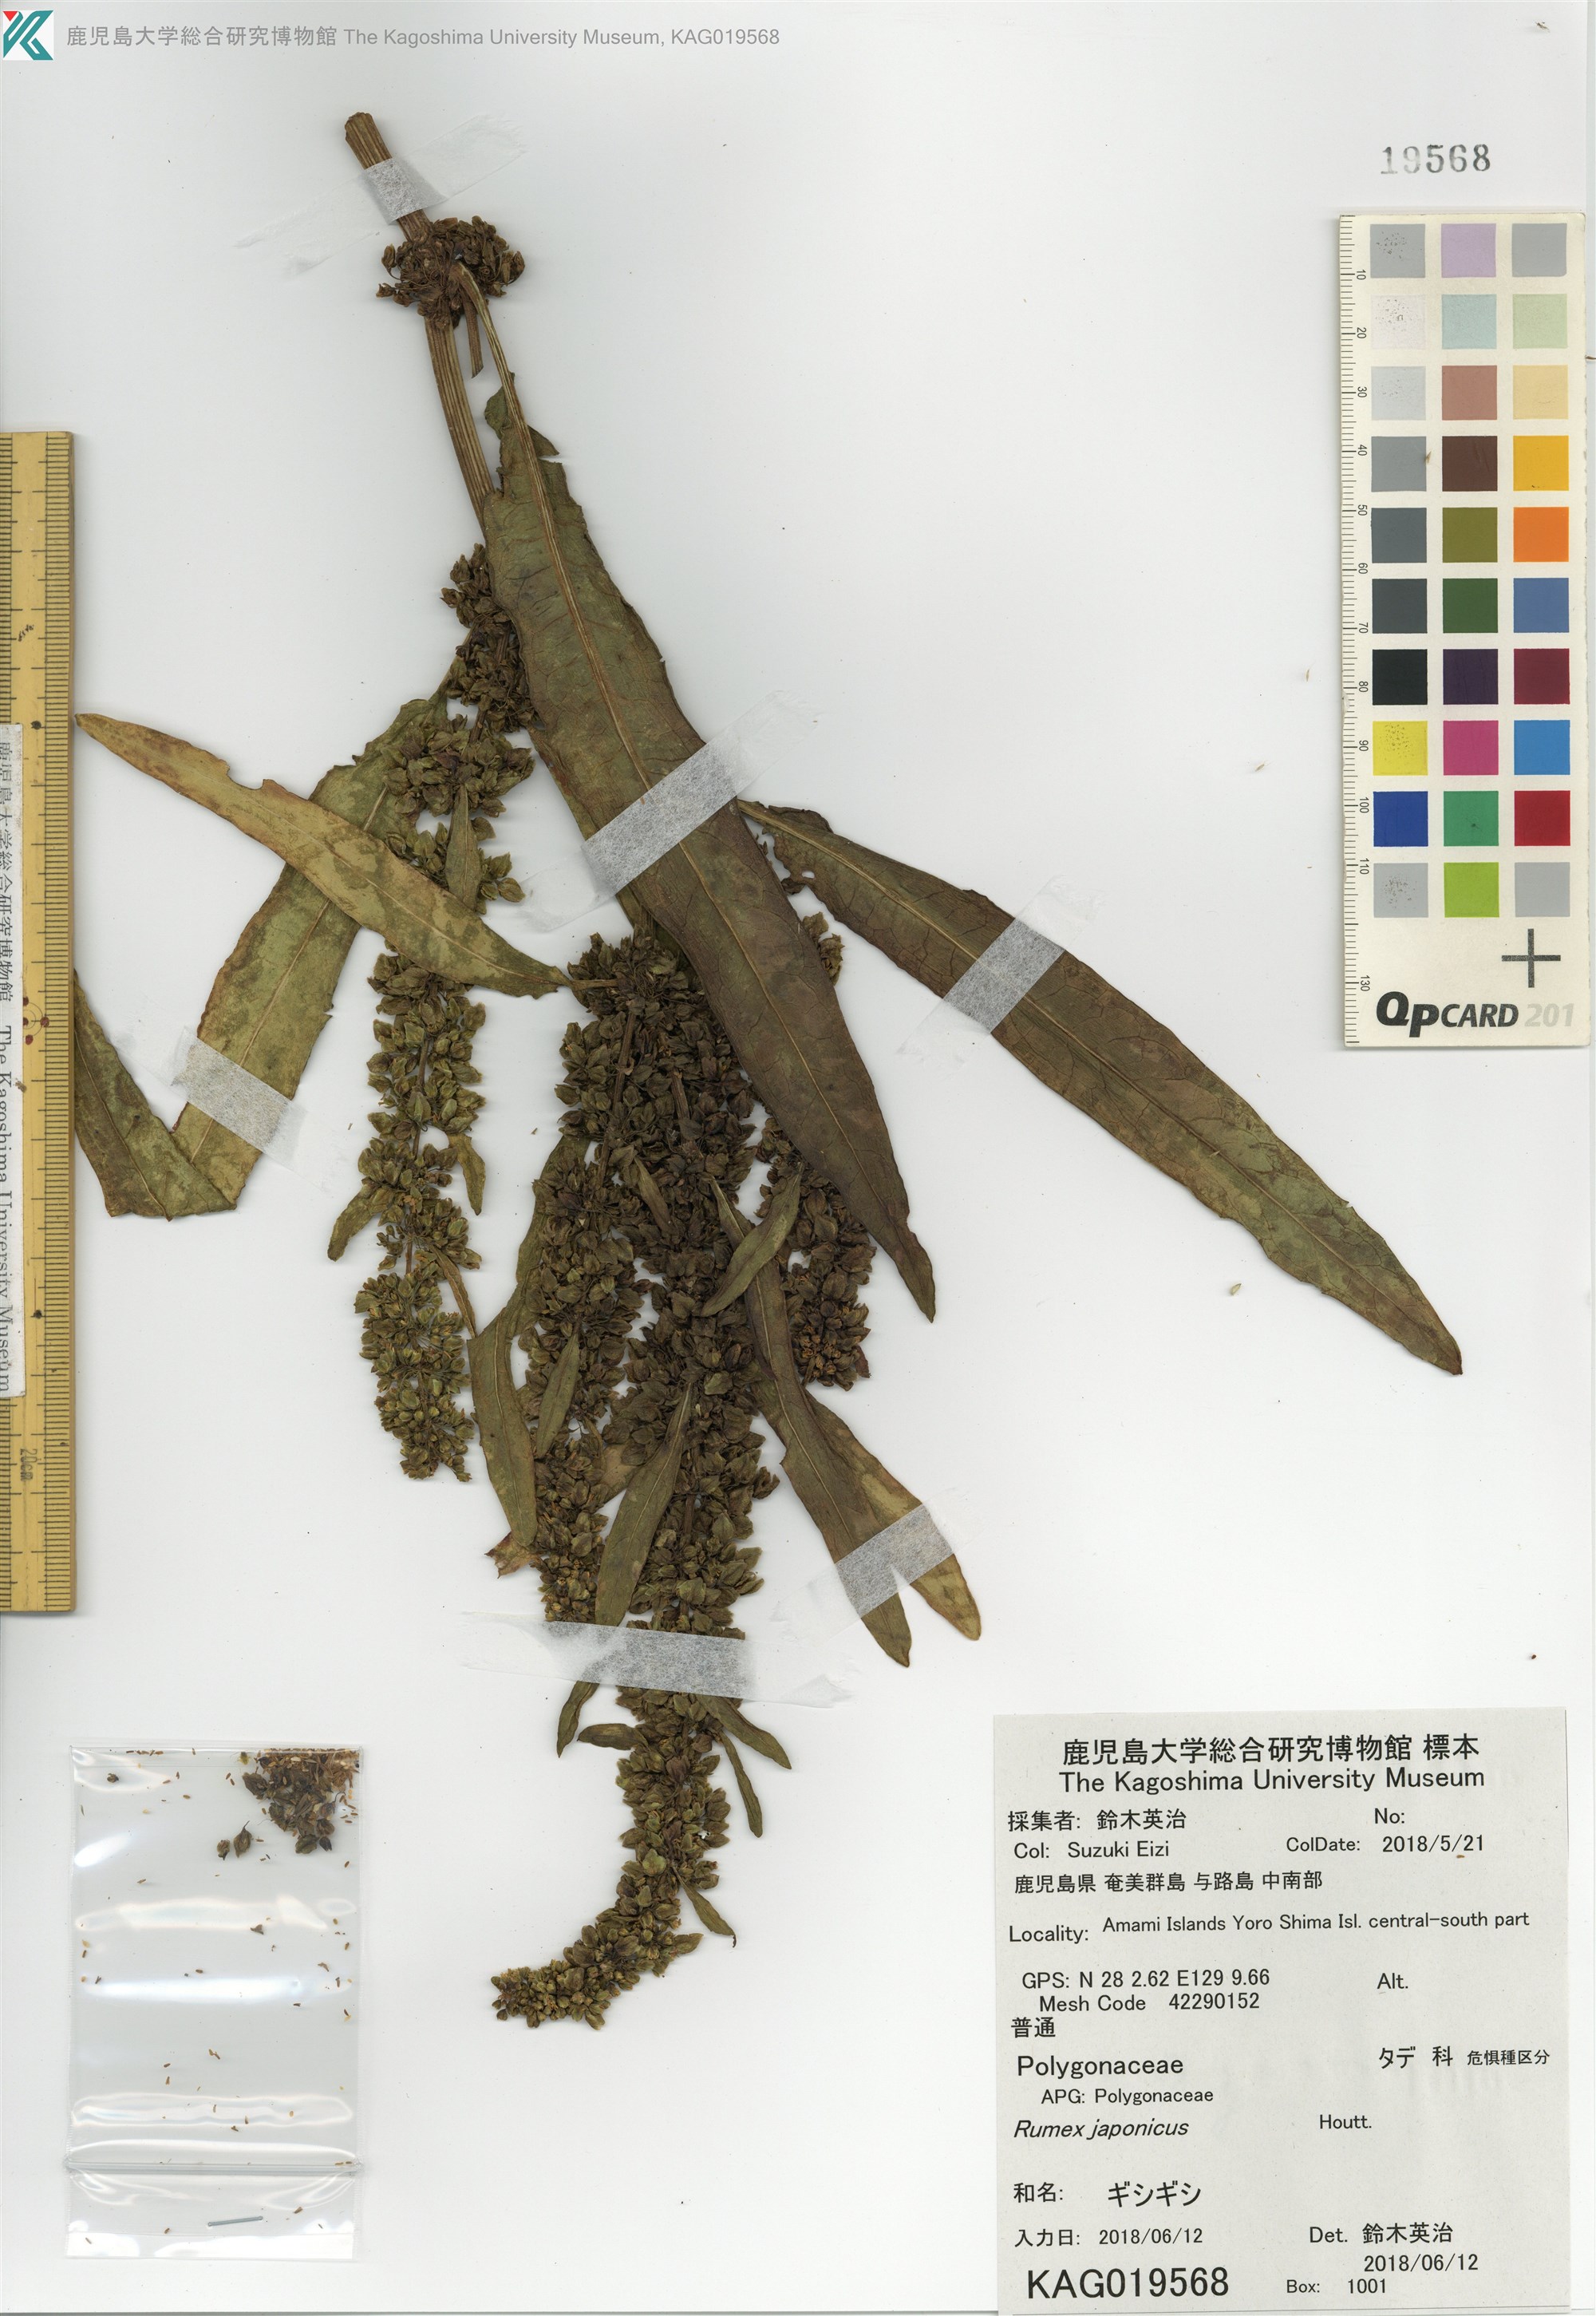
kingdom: Plantae
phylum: Tracheophyta
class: Magnoliopsida
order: Caryophyllales
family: Polygonaceae
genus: Rumex
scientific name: Rumex japonicus
